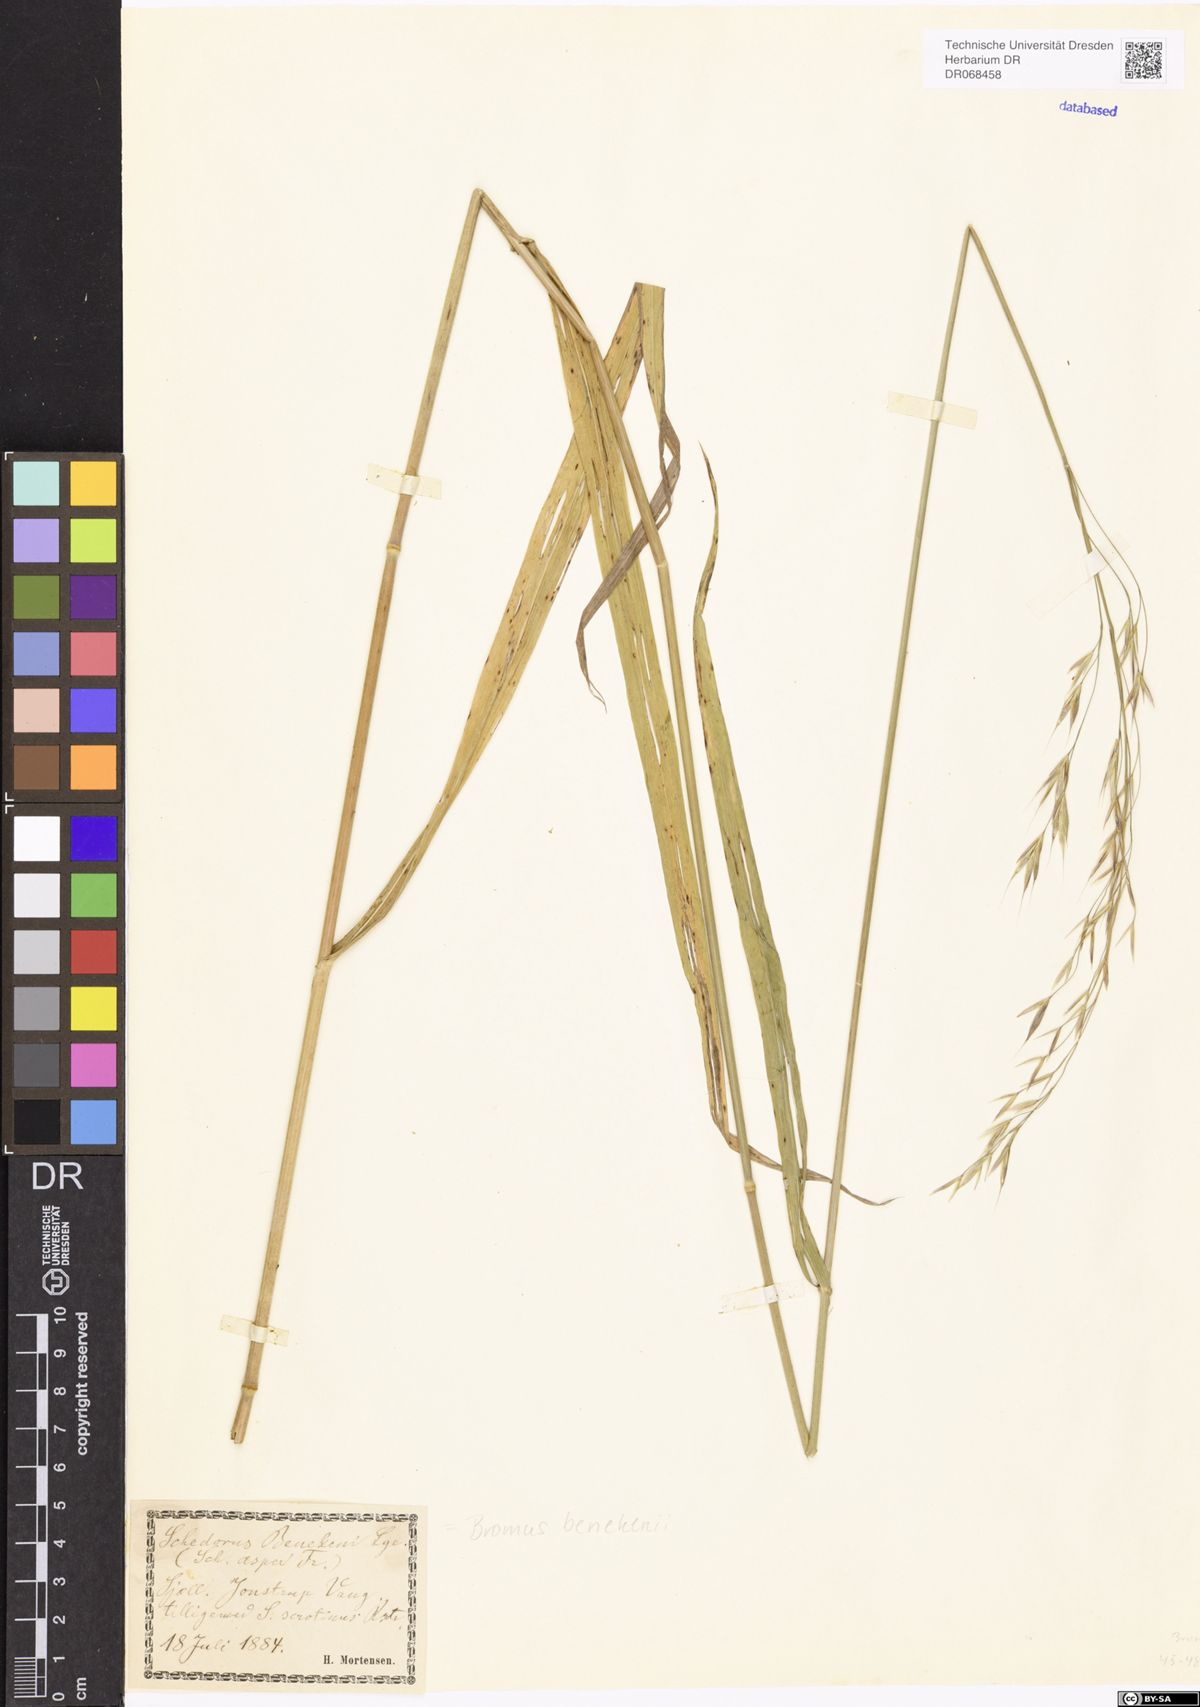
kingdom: Plantae
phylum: Tracheophyta
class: Liliopsida
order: Poales
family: Poaceae
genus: Bromus
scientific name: Bromus benekenii
